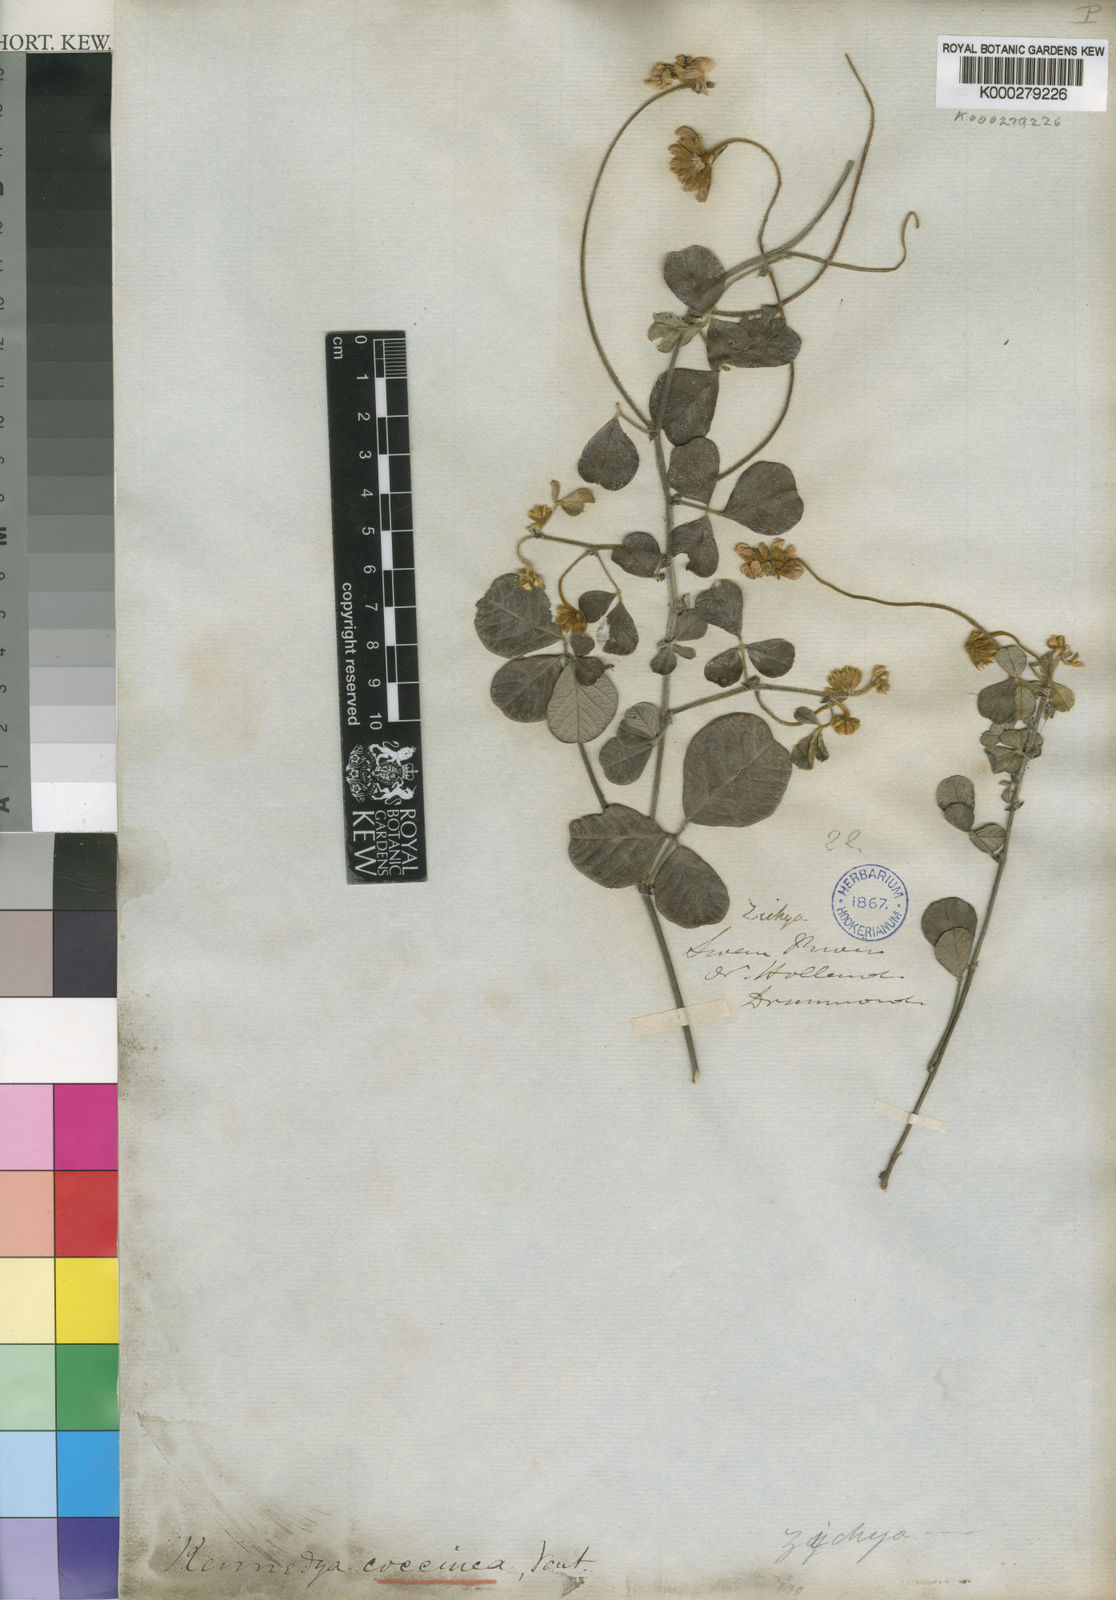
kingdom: Plantae
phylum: Tracheophyta
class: Magnoliopsida
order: Fabales
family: Fabaceae
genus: Kennedia
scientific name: Kennedia coccinea
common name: Coralvine
